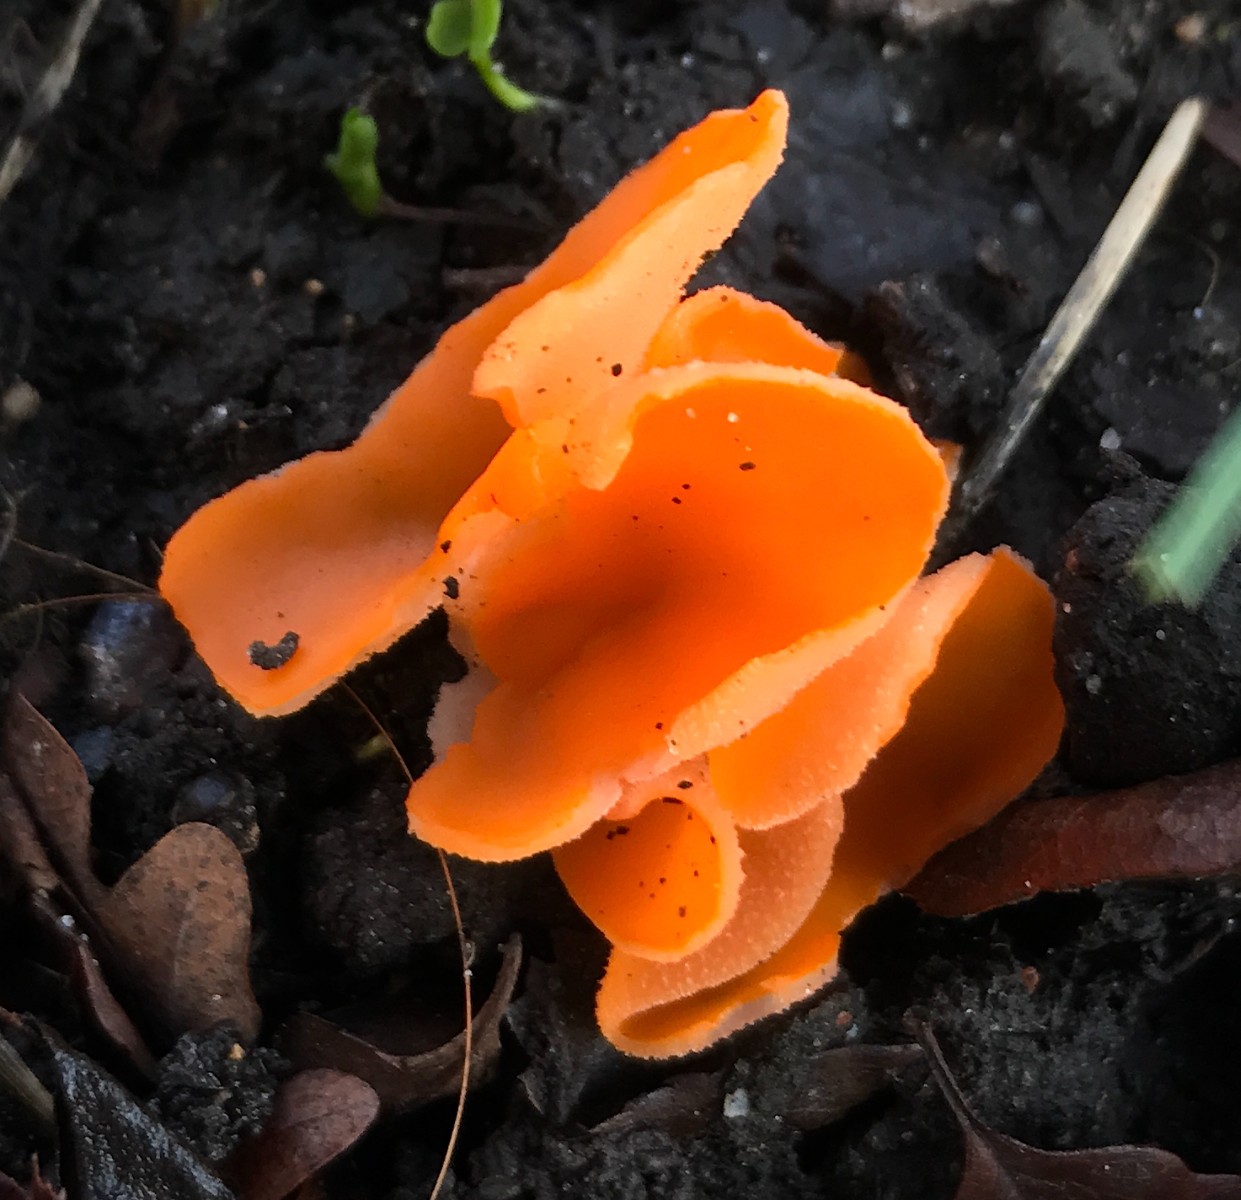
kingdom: Fungi
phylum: Ascomycota
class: Pezizomycetes
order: Pezizales
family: Pyronemataceae
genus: Aleuria
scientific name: Aleuria aurantia
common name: almindelig orangebæger
